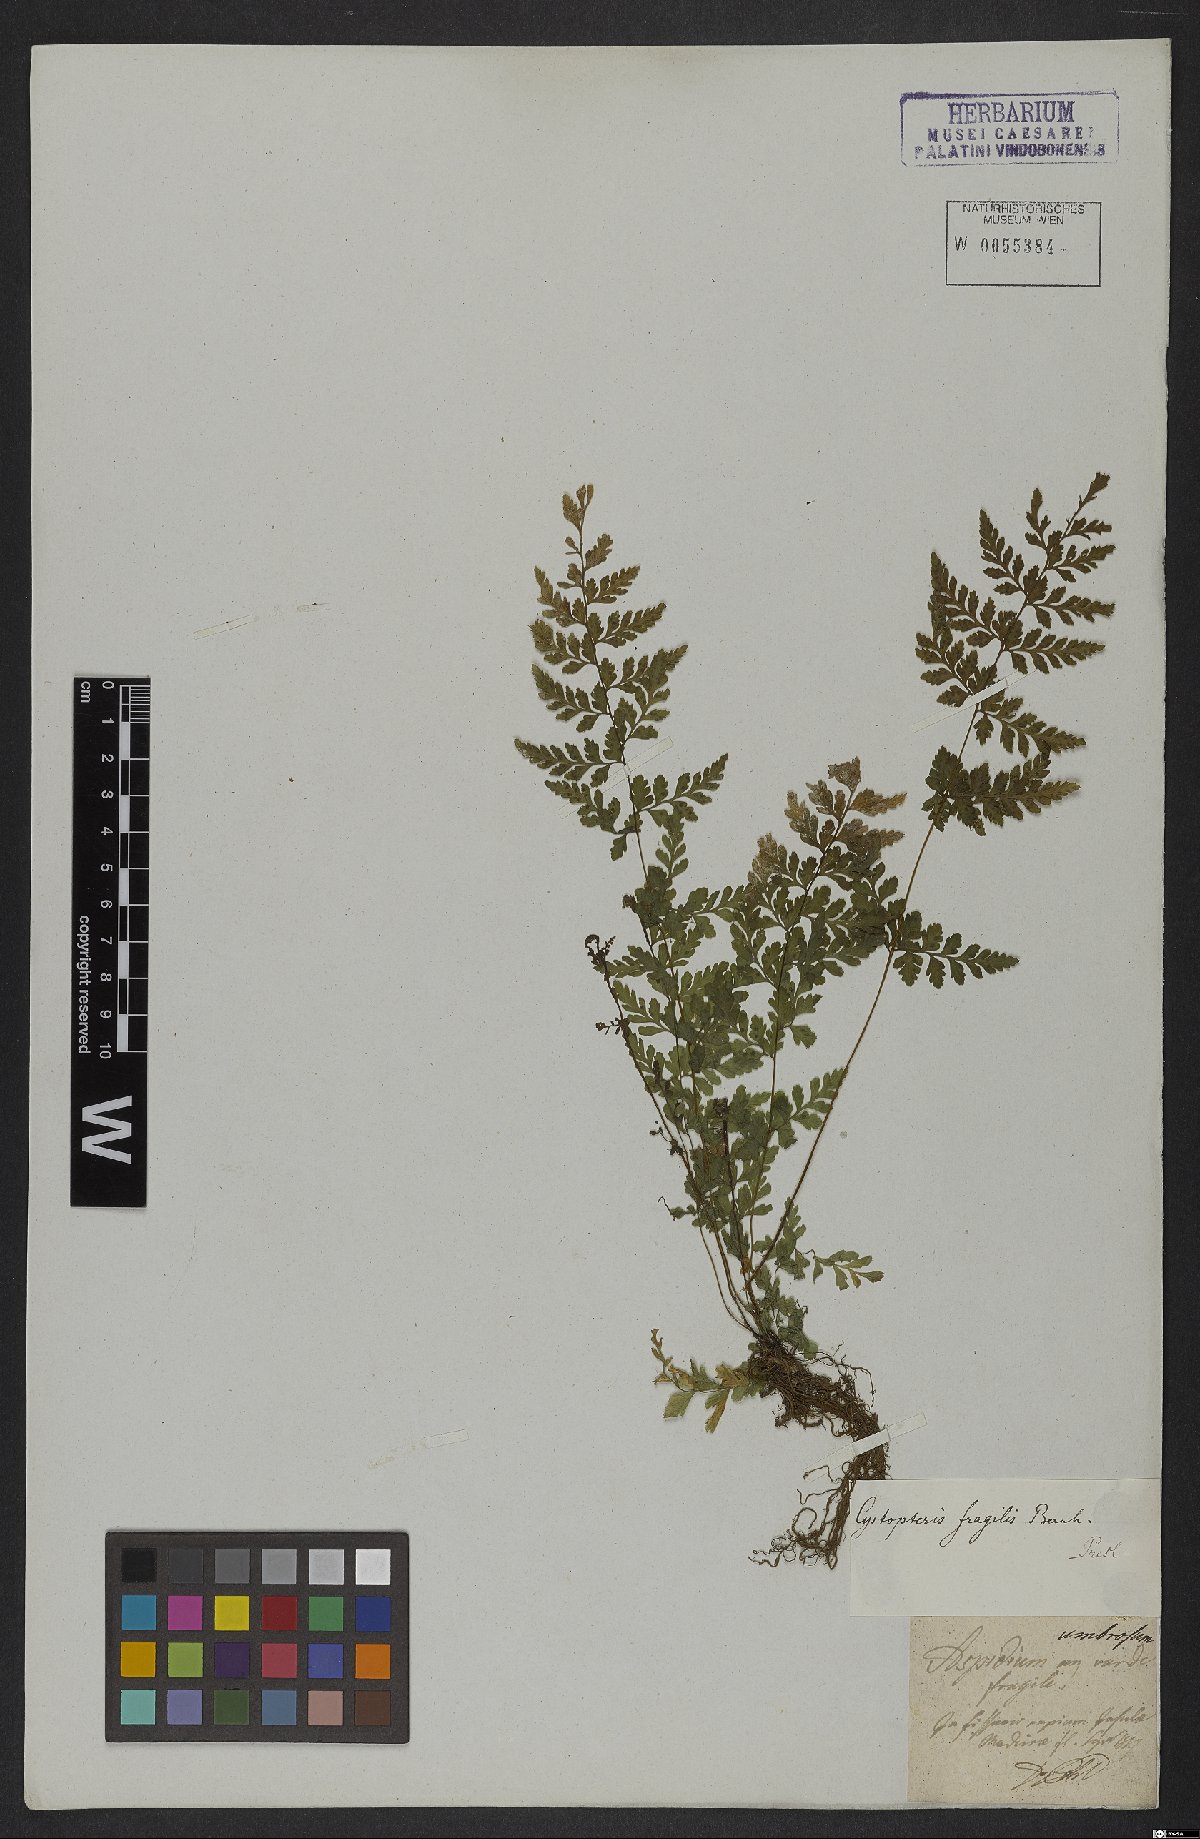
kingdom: Plantae
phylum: Tracheophyta
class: Polypodiopsida
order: Polypodiales
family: Cystopteridaceae
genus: Cystopteris
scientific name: Cystopteris fragilis
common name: Brittle bladder fern
